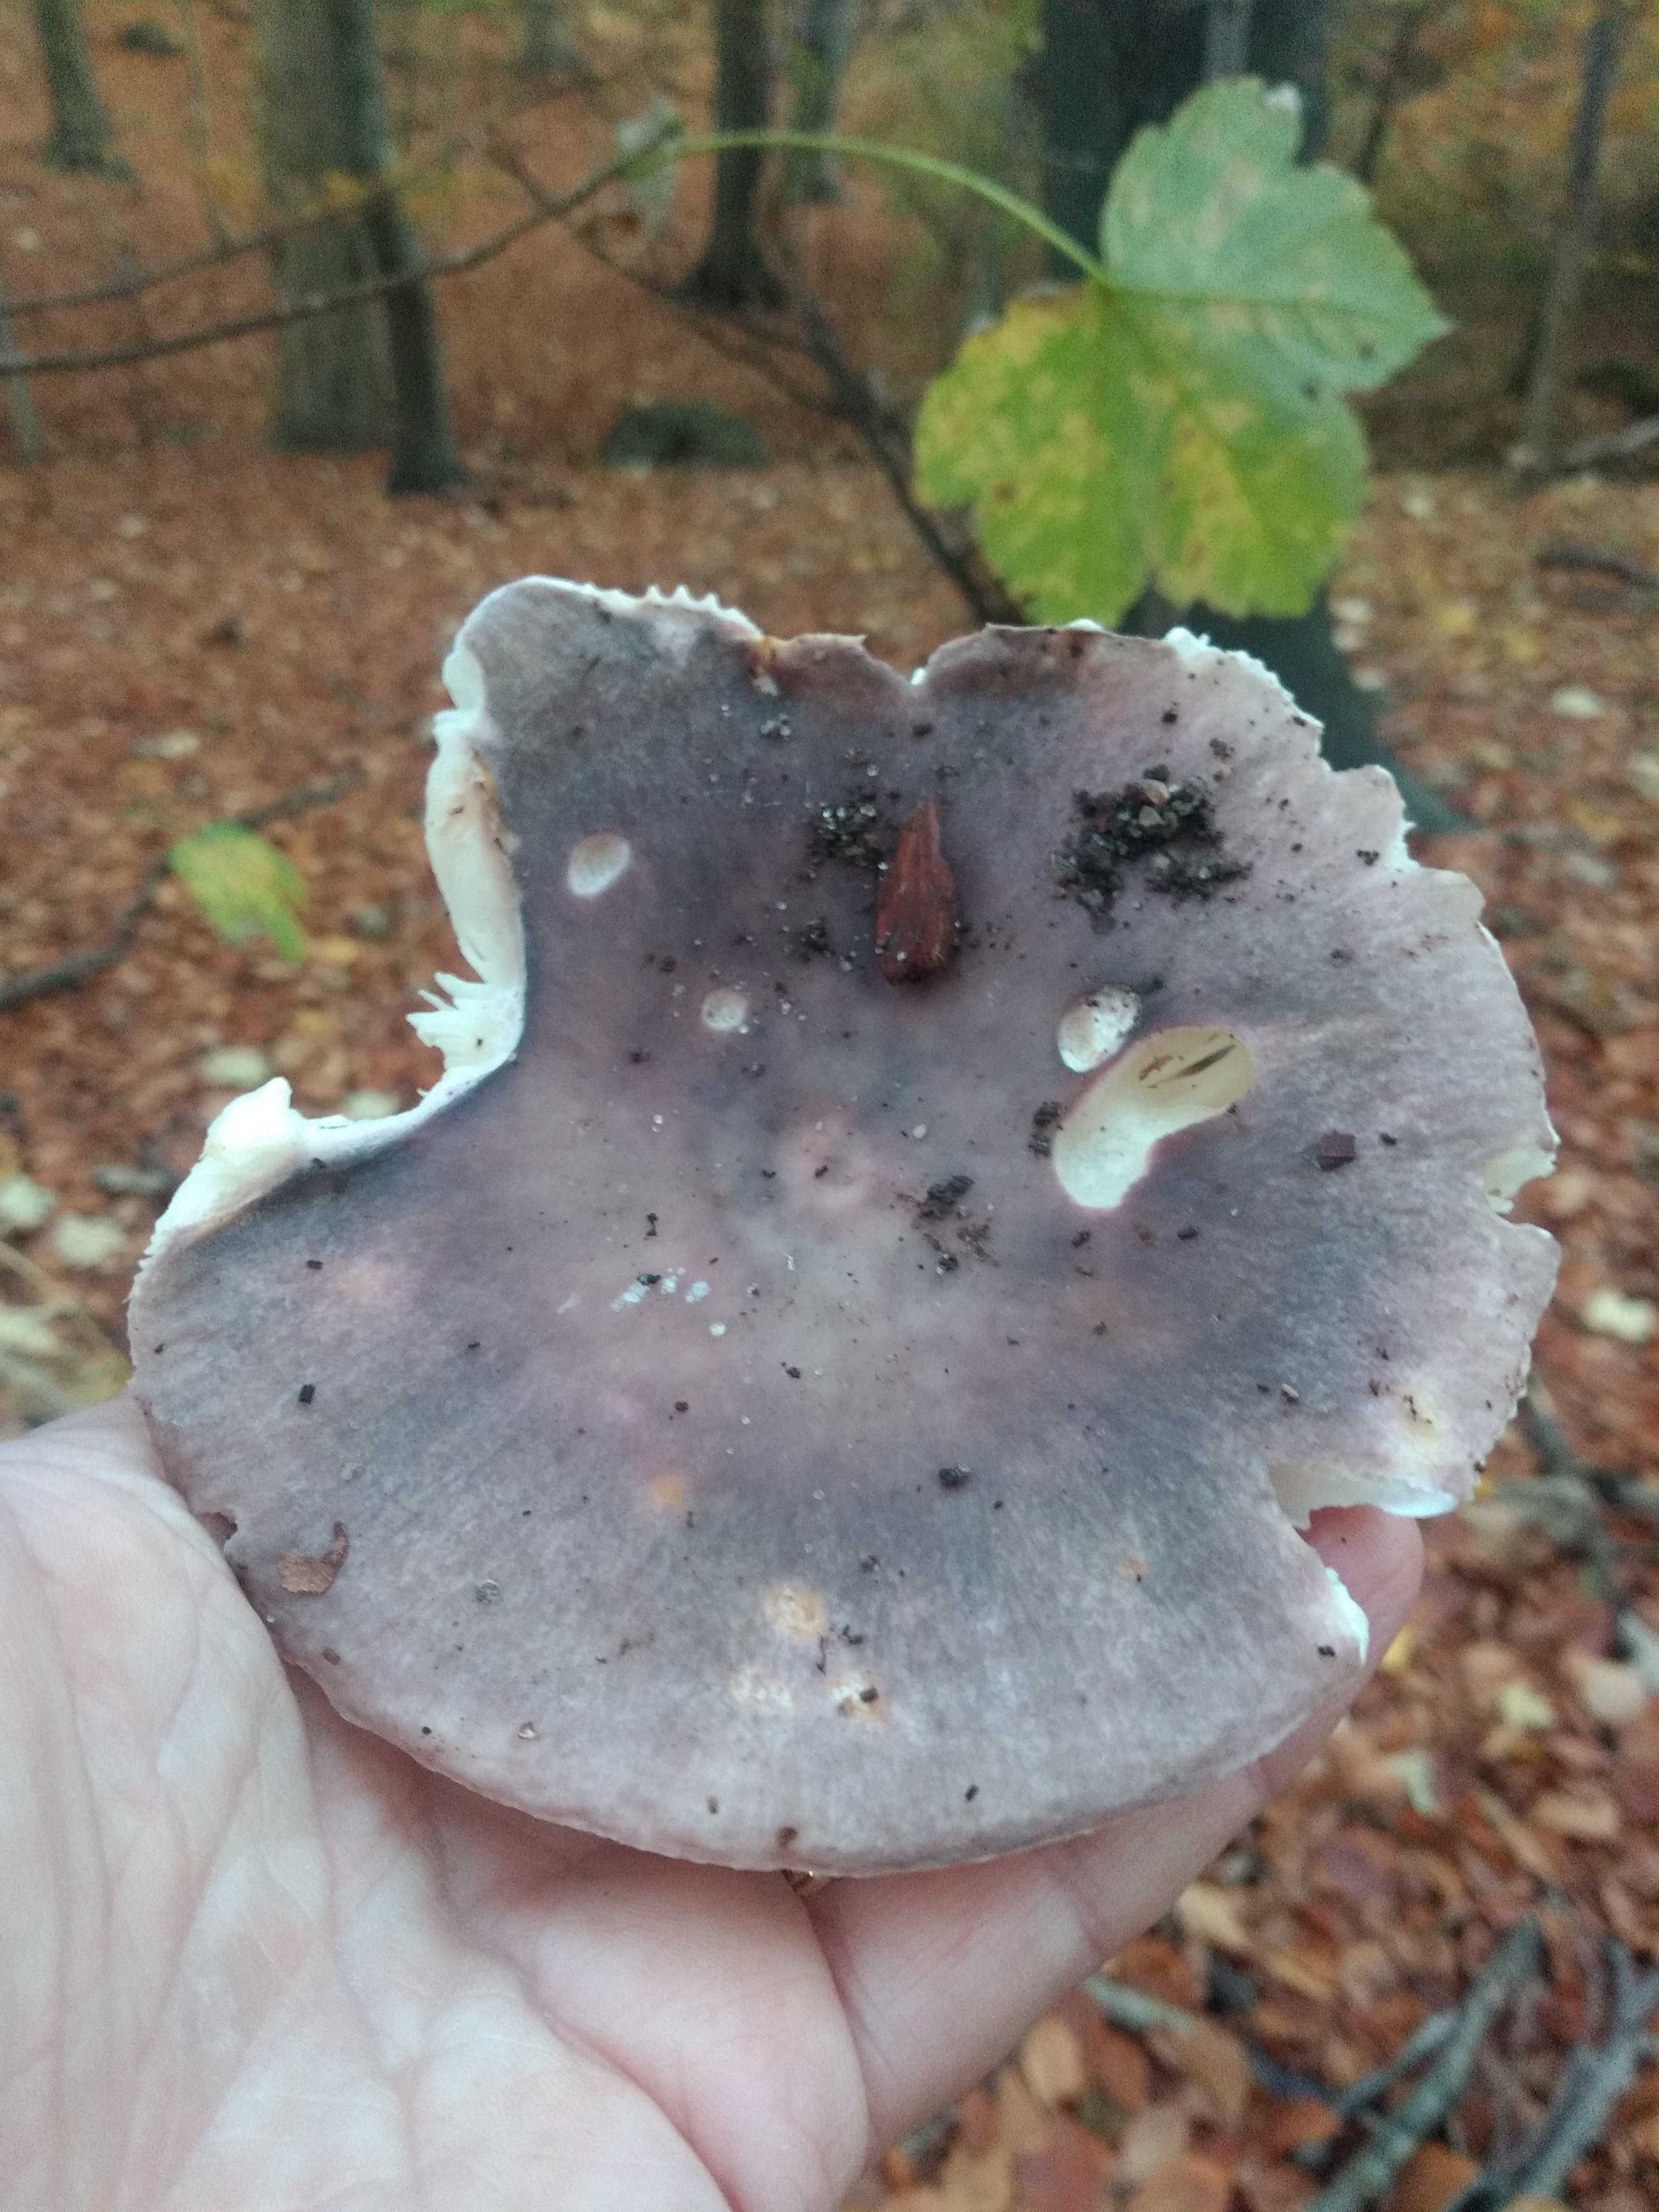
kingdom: Fungi
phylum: Basidiomycota
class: Agaricomycetes
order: Russulales
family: Russulaceae
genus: Russula
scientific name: Russula cyanoxantha
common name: broget skørhat
